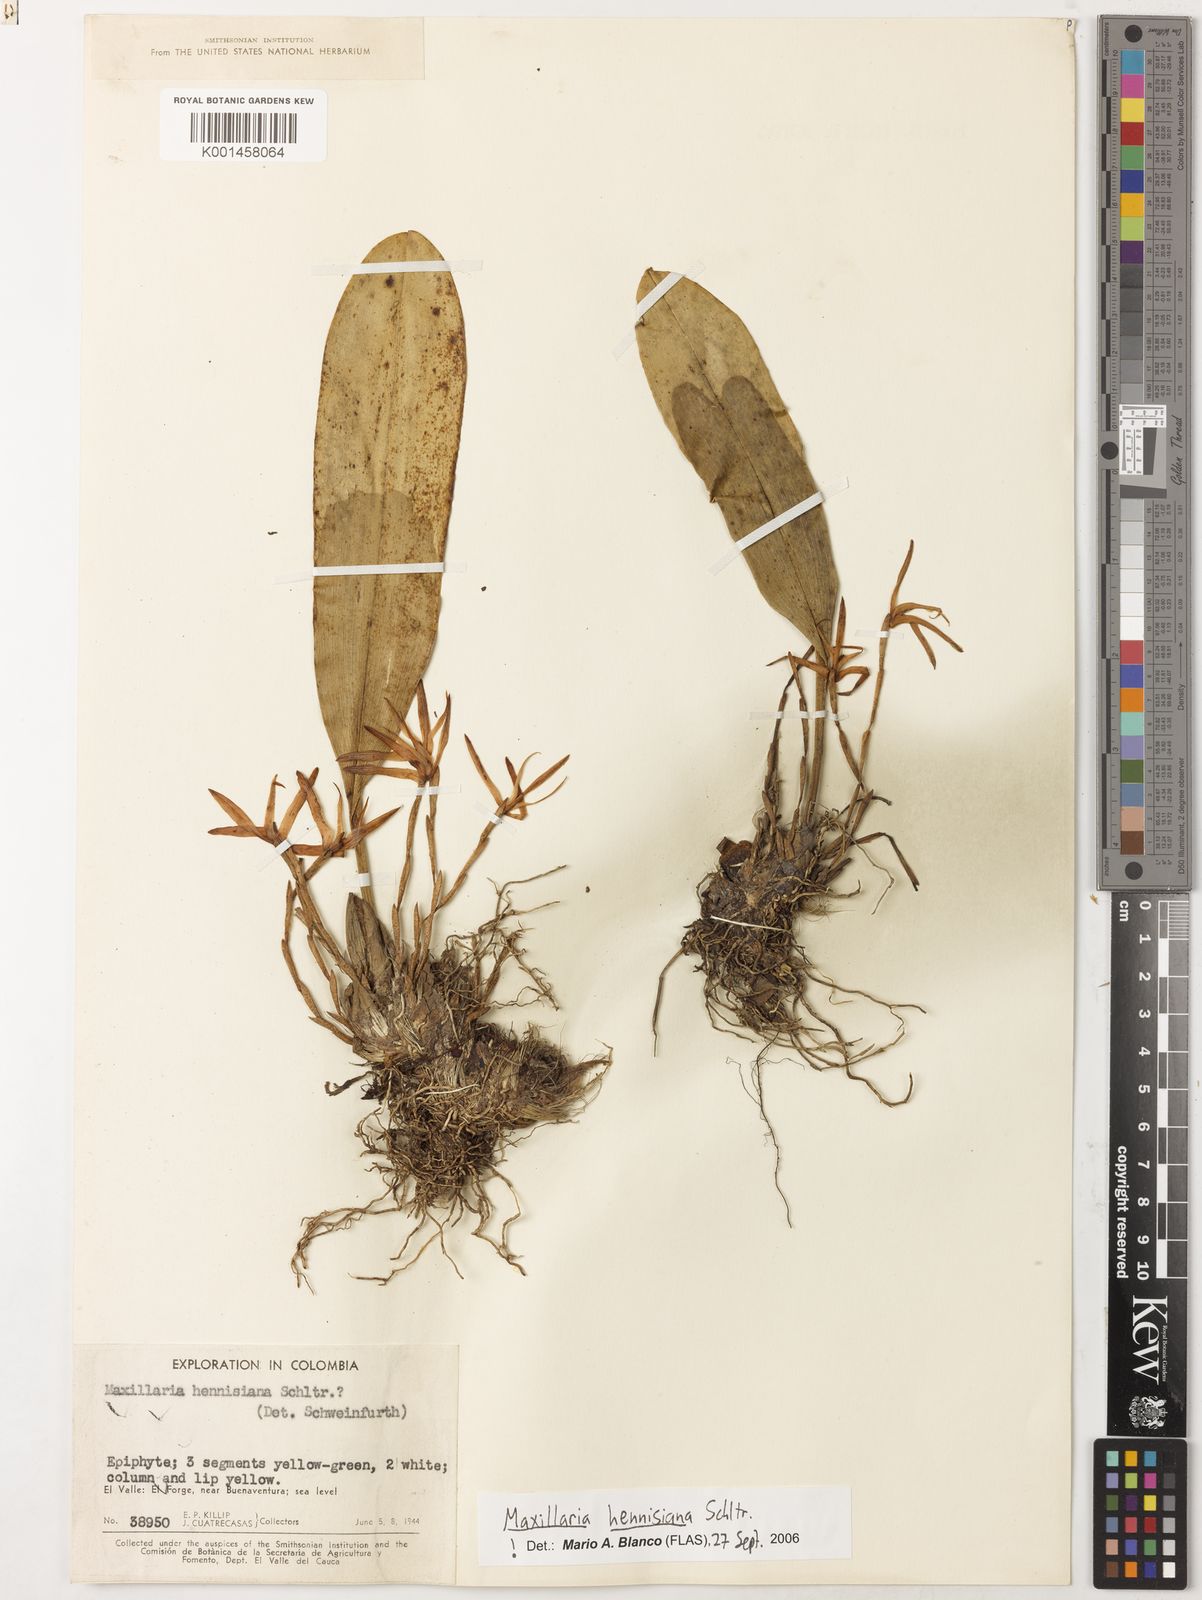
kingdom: Plantae
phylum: Tracheophyta
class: Liliopsida
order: Asparagales
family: Orchidaceae
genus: Maxillaria
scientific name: Maxillaria hennisiana
